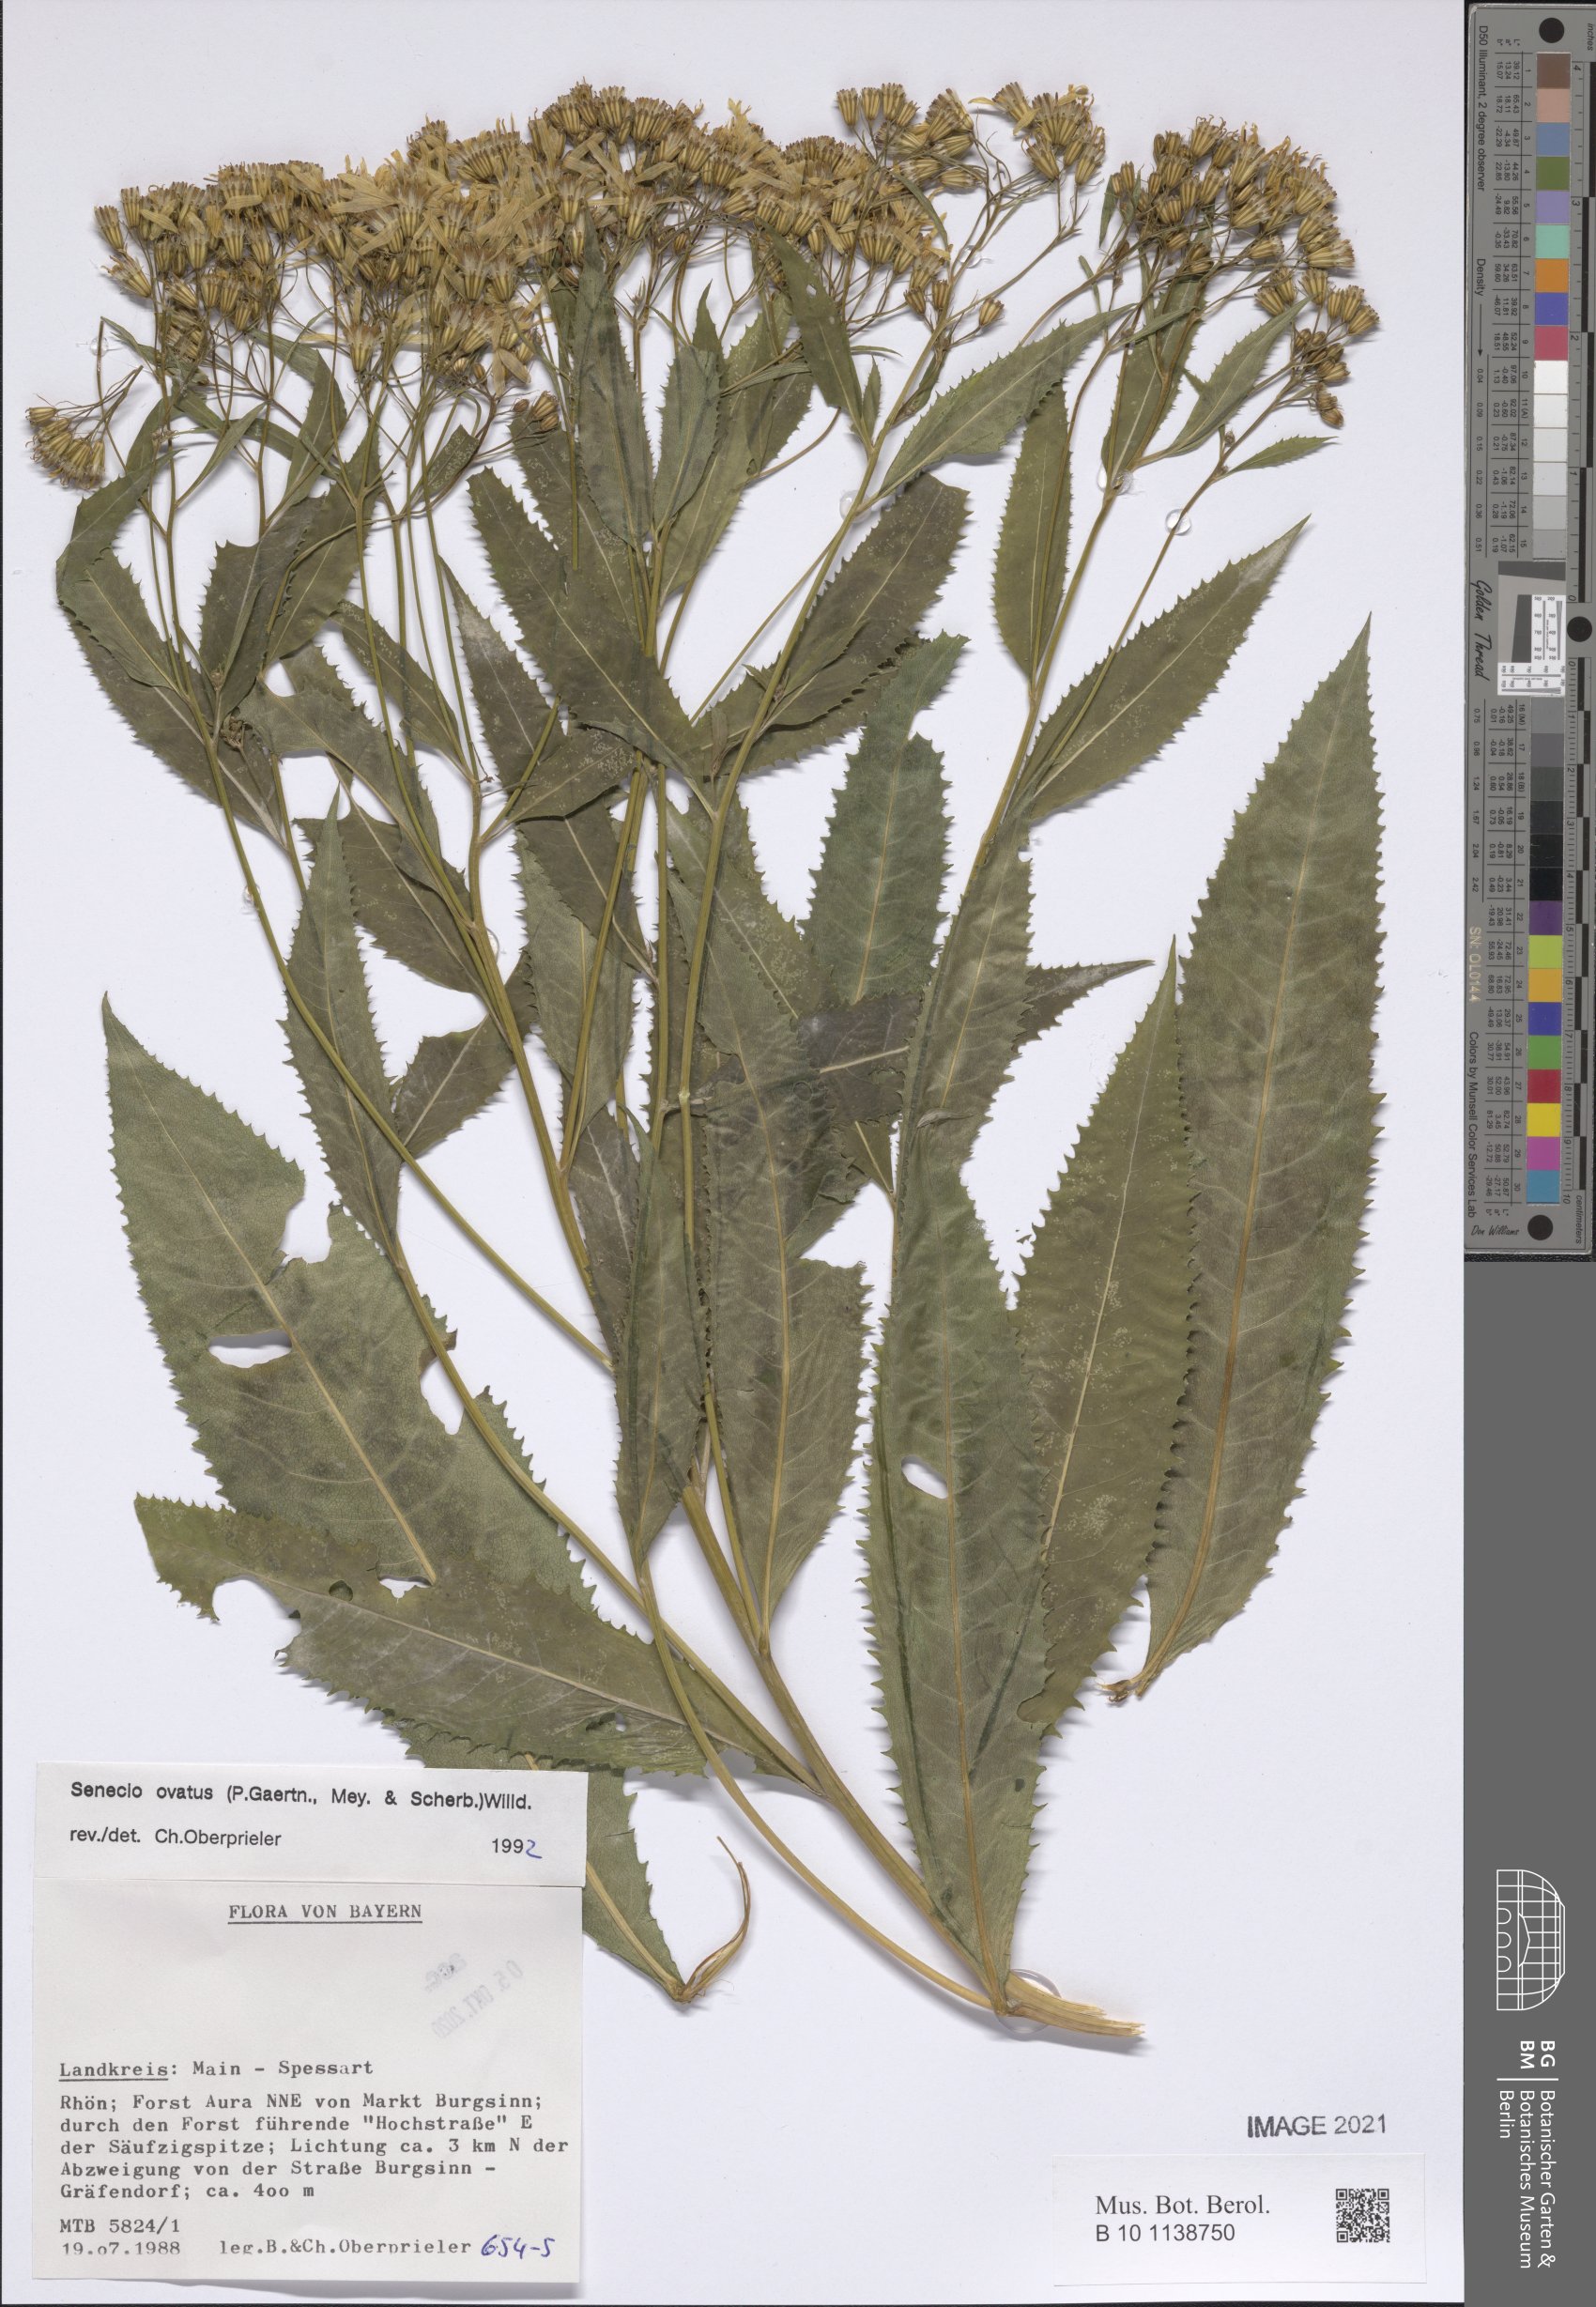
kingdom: Plantae
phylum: Tracheophyta
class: Magnoliopsida
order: Asterales
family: Asteraceae
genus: Senecio
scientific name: Senecio ovatus
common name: Wood ragwort
